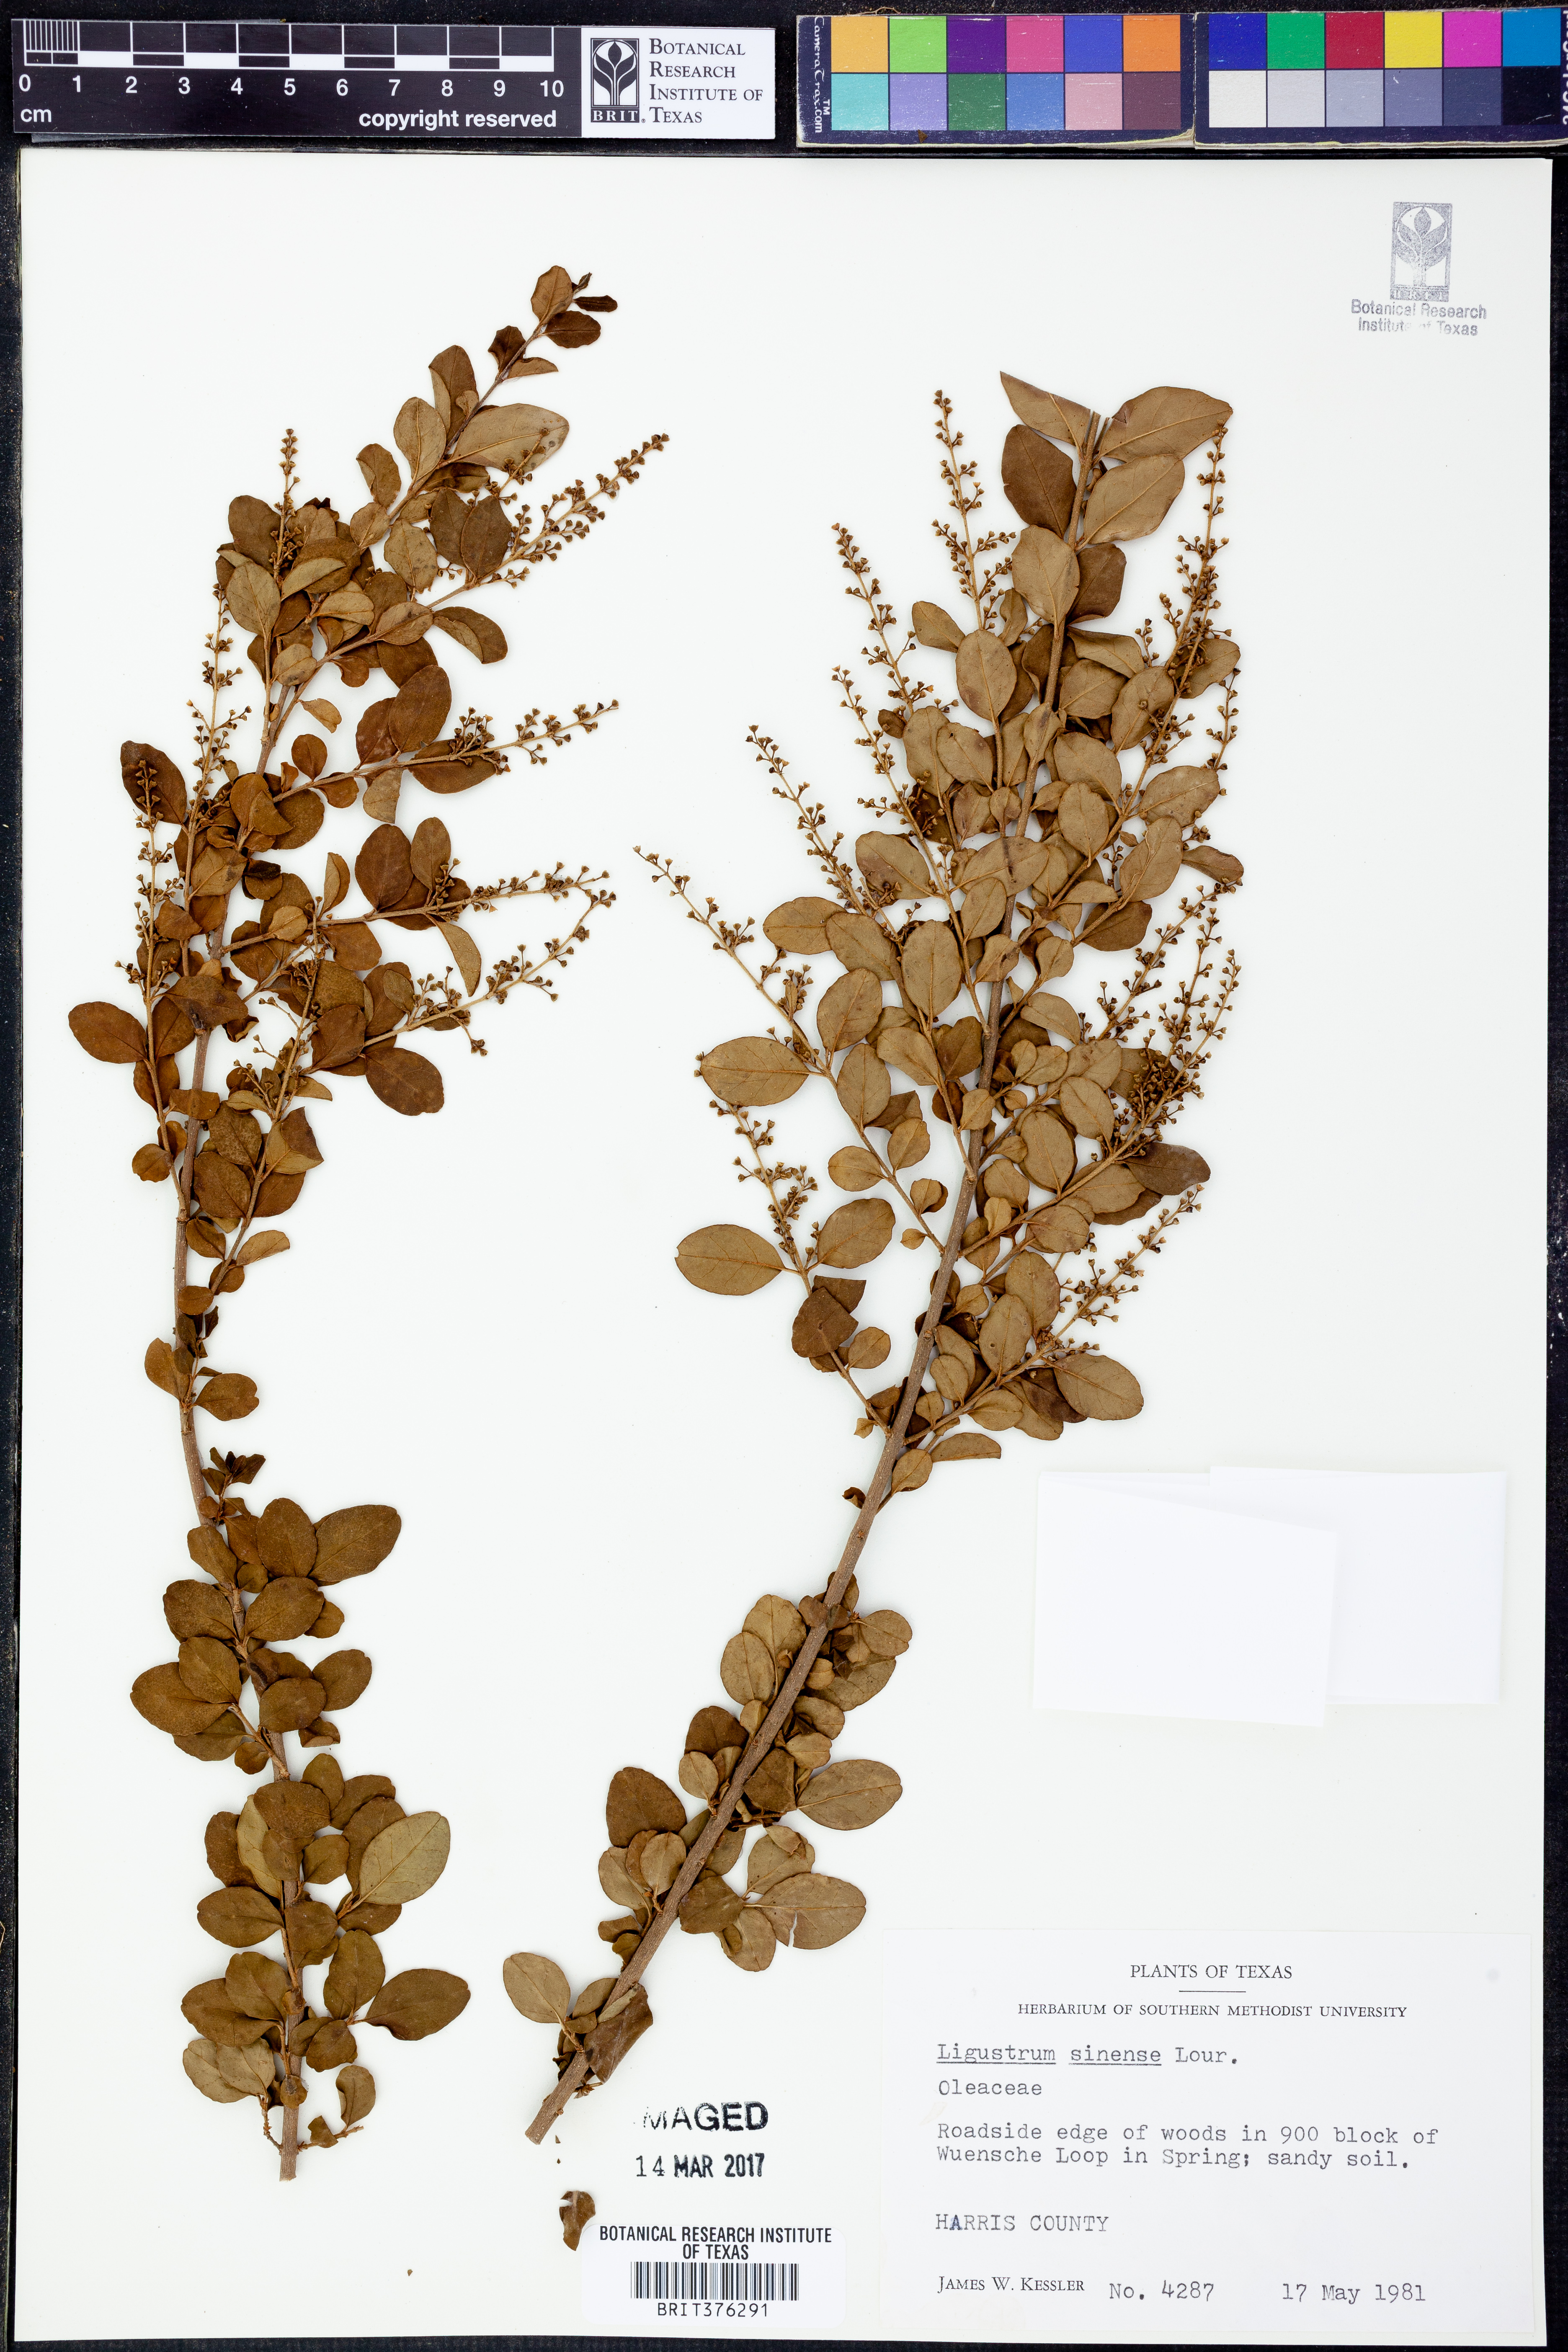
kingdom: Plantae
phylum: Tracheophyta
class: Magnoliopsida
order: Lamiales
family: Oleaceae
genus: Ligustrum
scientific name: Ligustrum sinense
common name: Chinese privet
